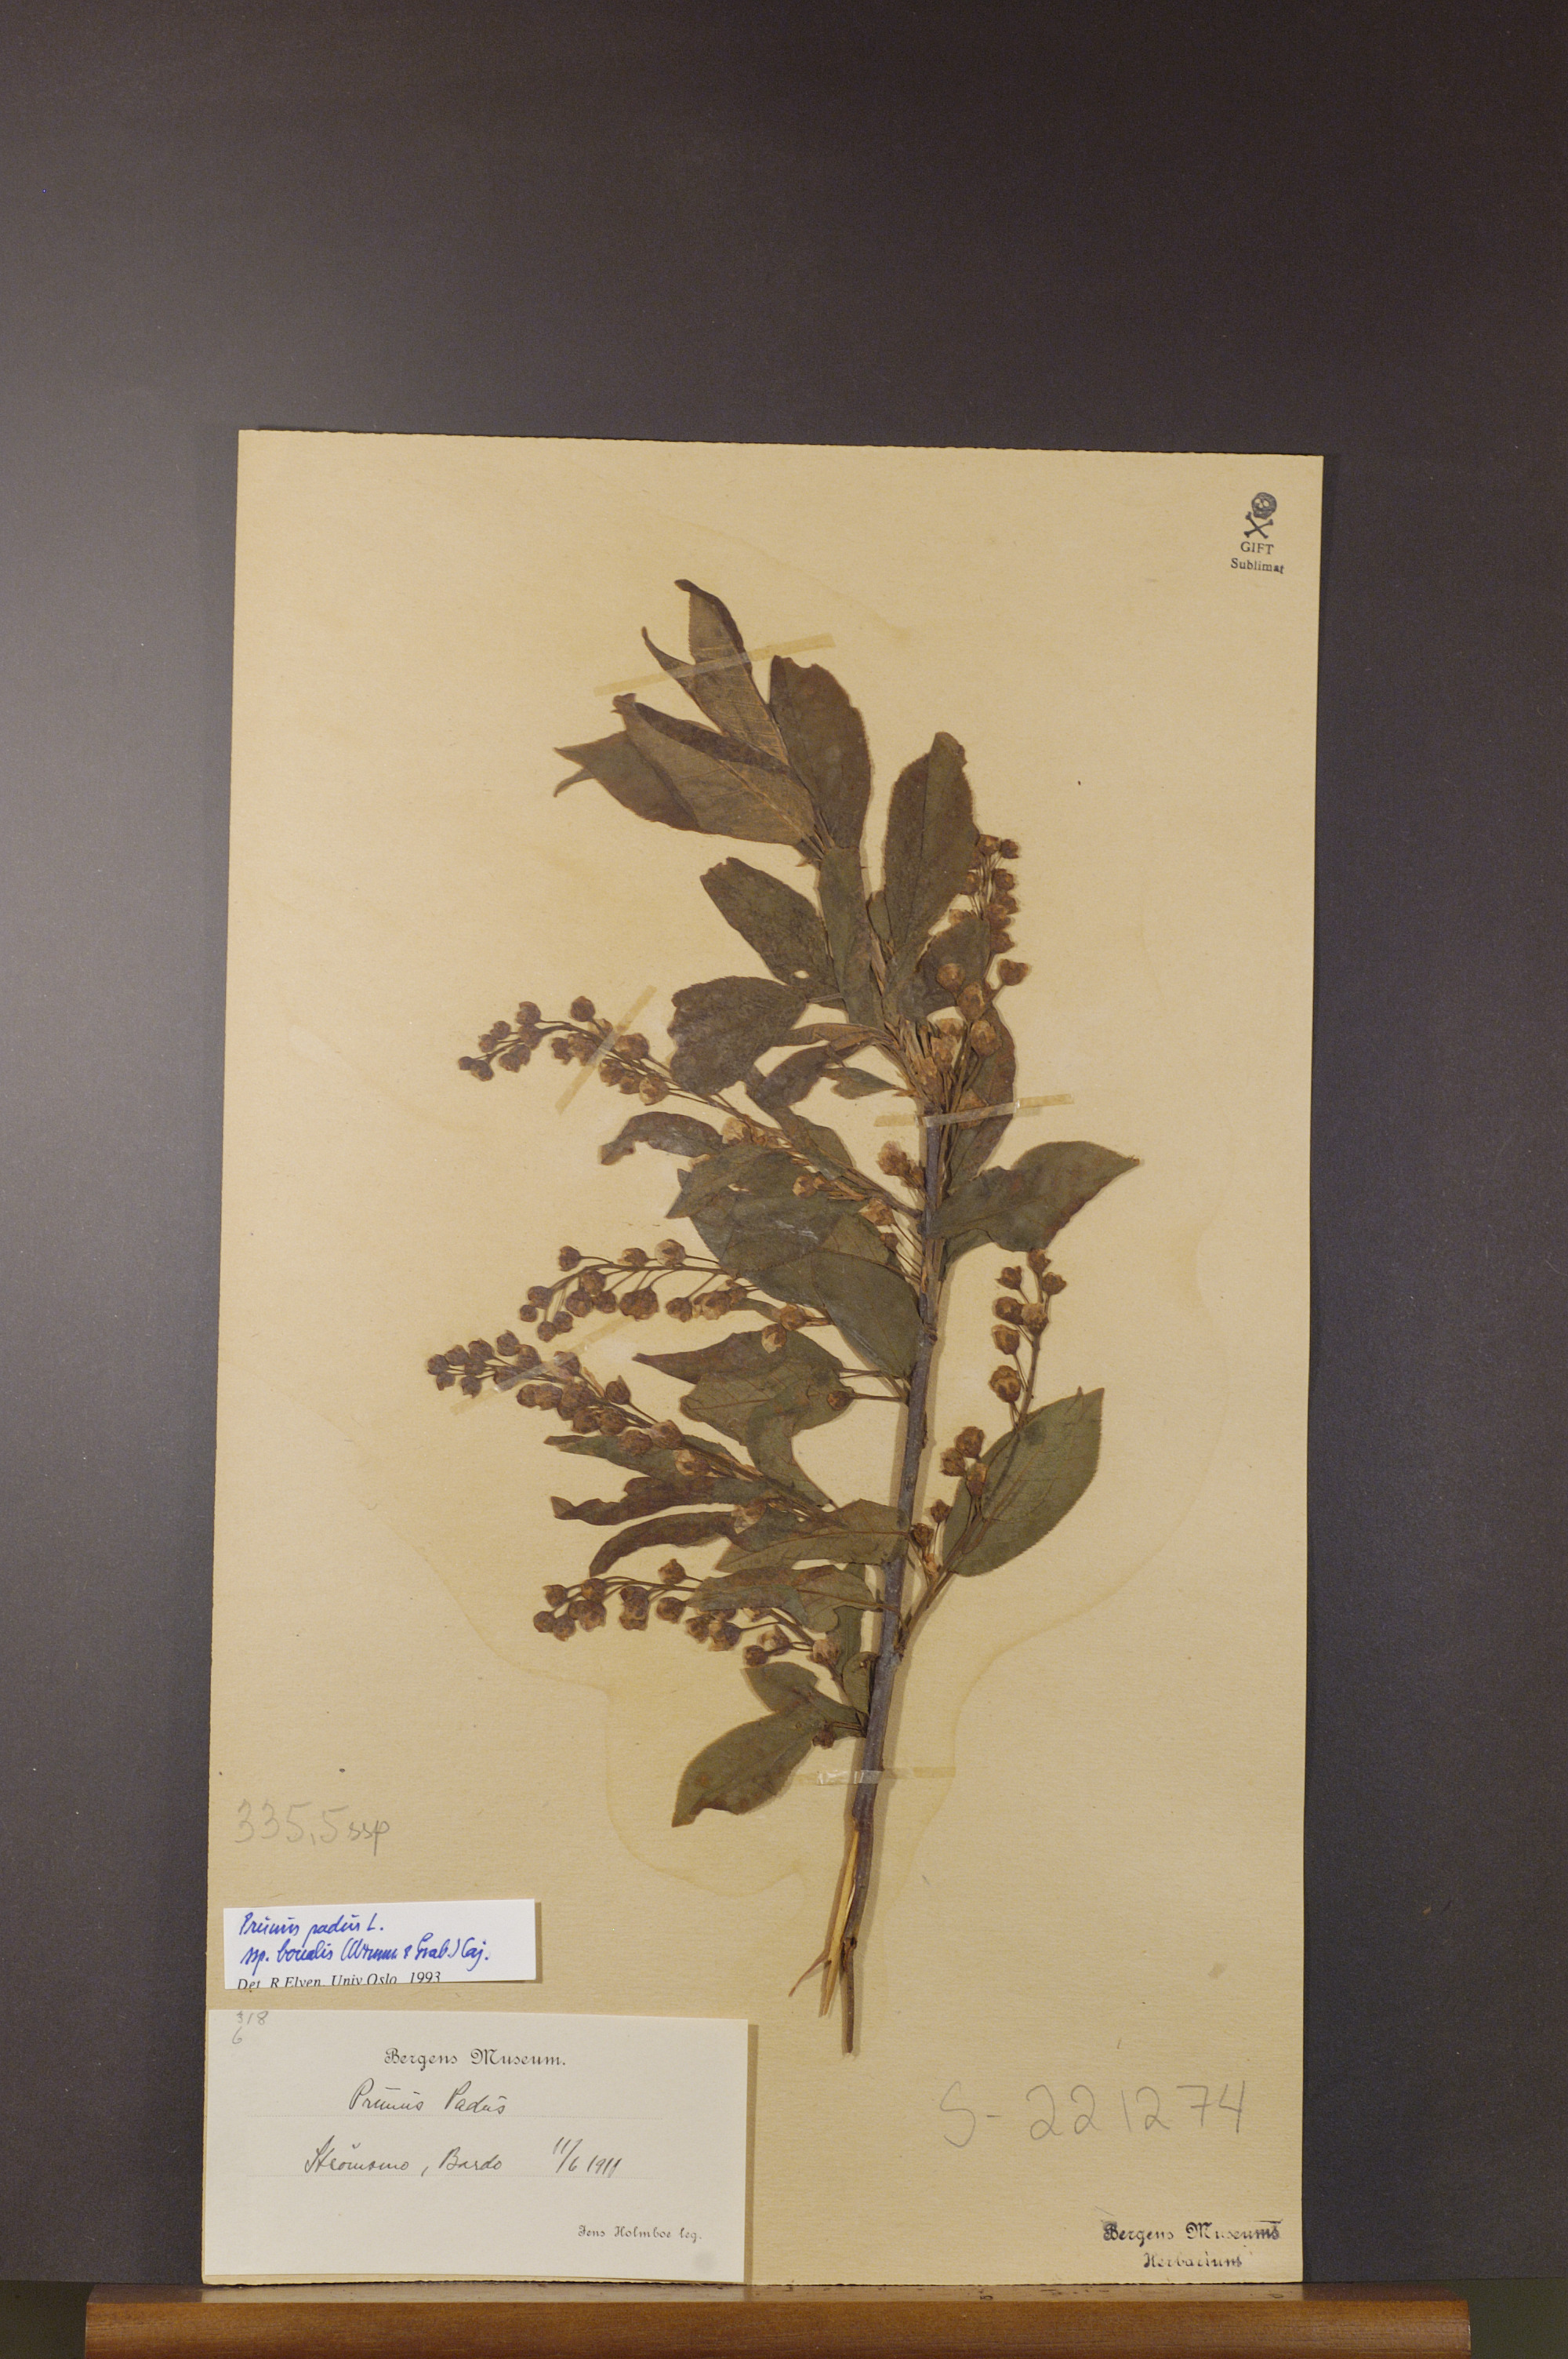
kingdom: Plantae
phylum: Tracheophyta
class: Magnoliopsida
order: Rosales
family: Rosaceae
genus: Prunus
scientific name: Prunus padus
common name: Bird cherry
